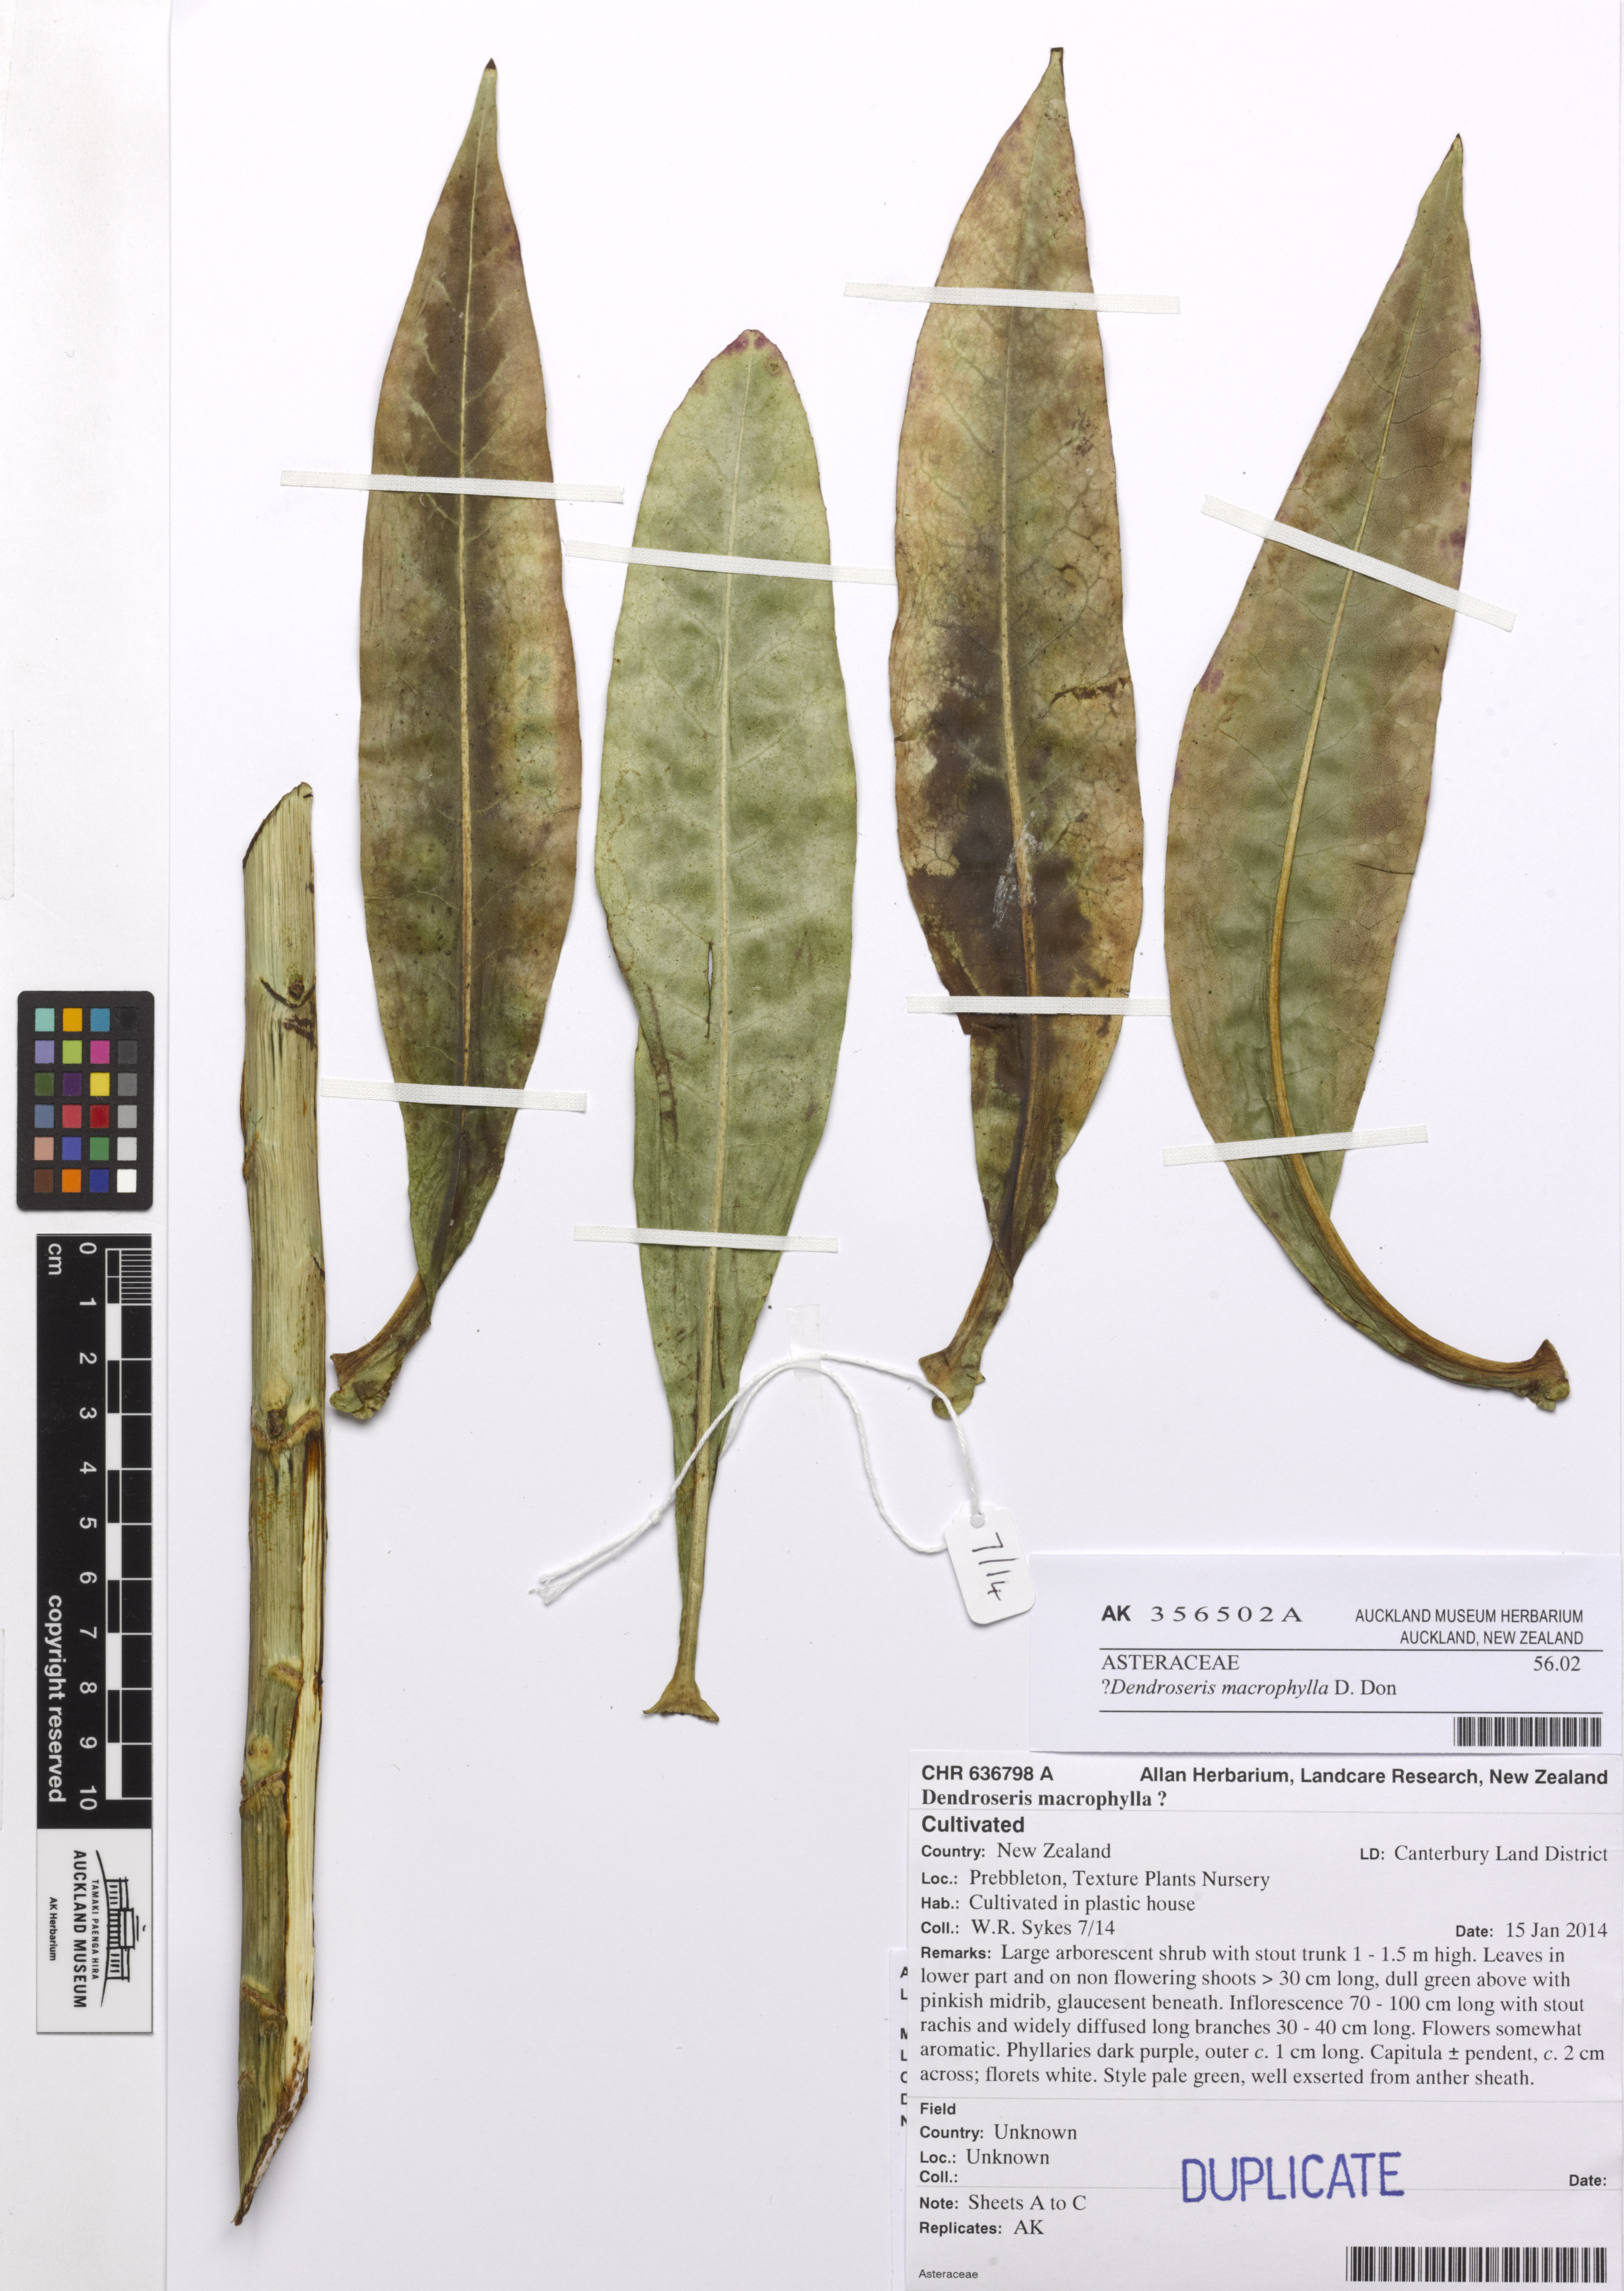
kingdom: Plantae
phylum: Tracheophyta
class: Magnoliopsida
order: Asterales
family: Asteraceae
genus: Sonchus
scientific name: Sonchus splendens
